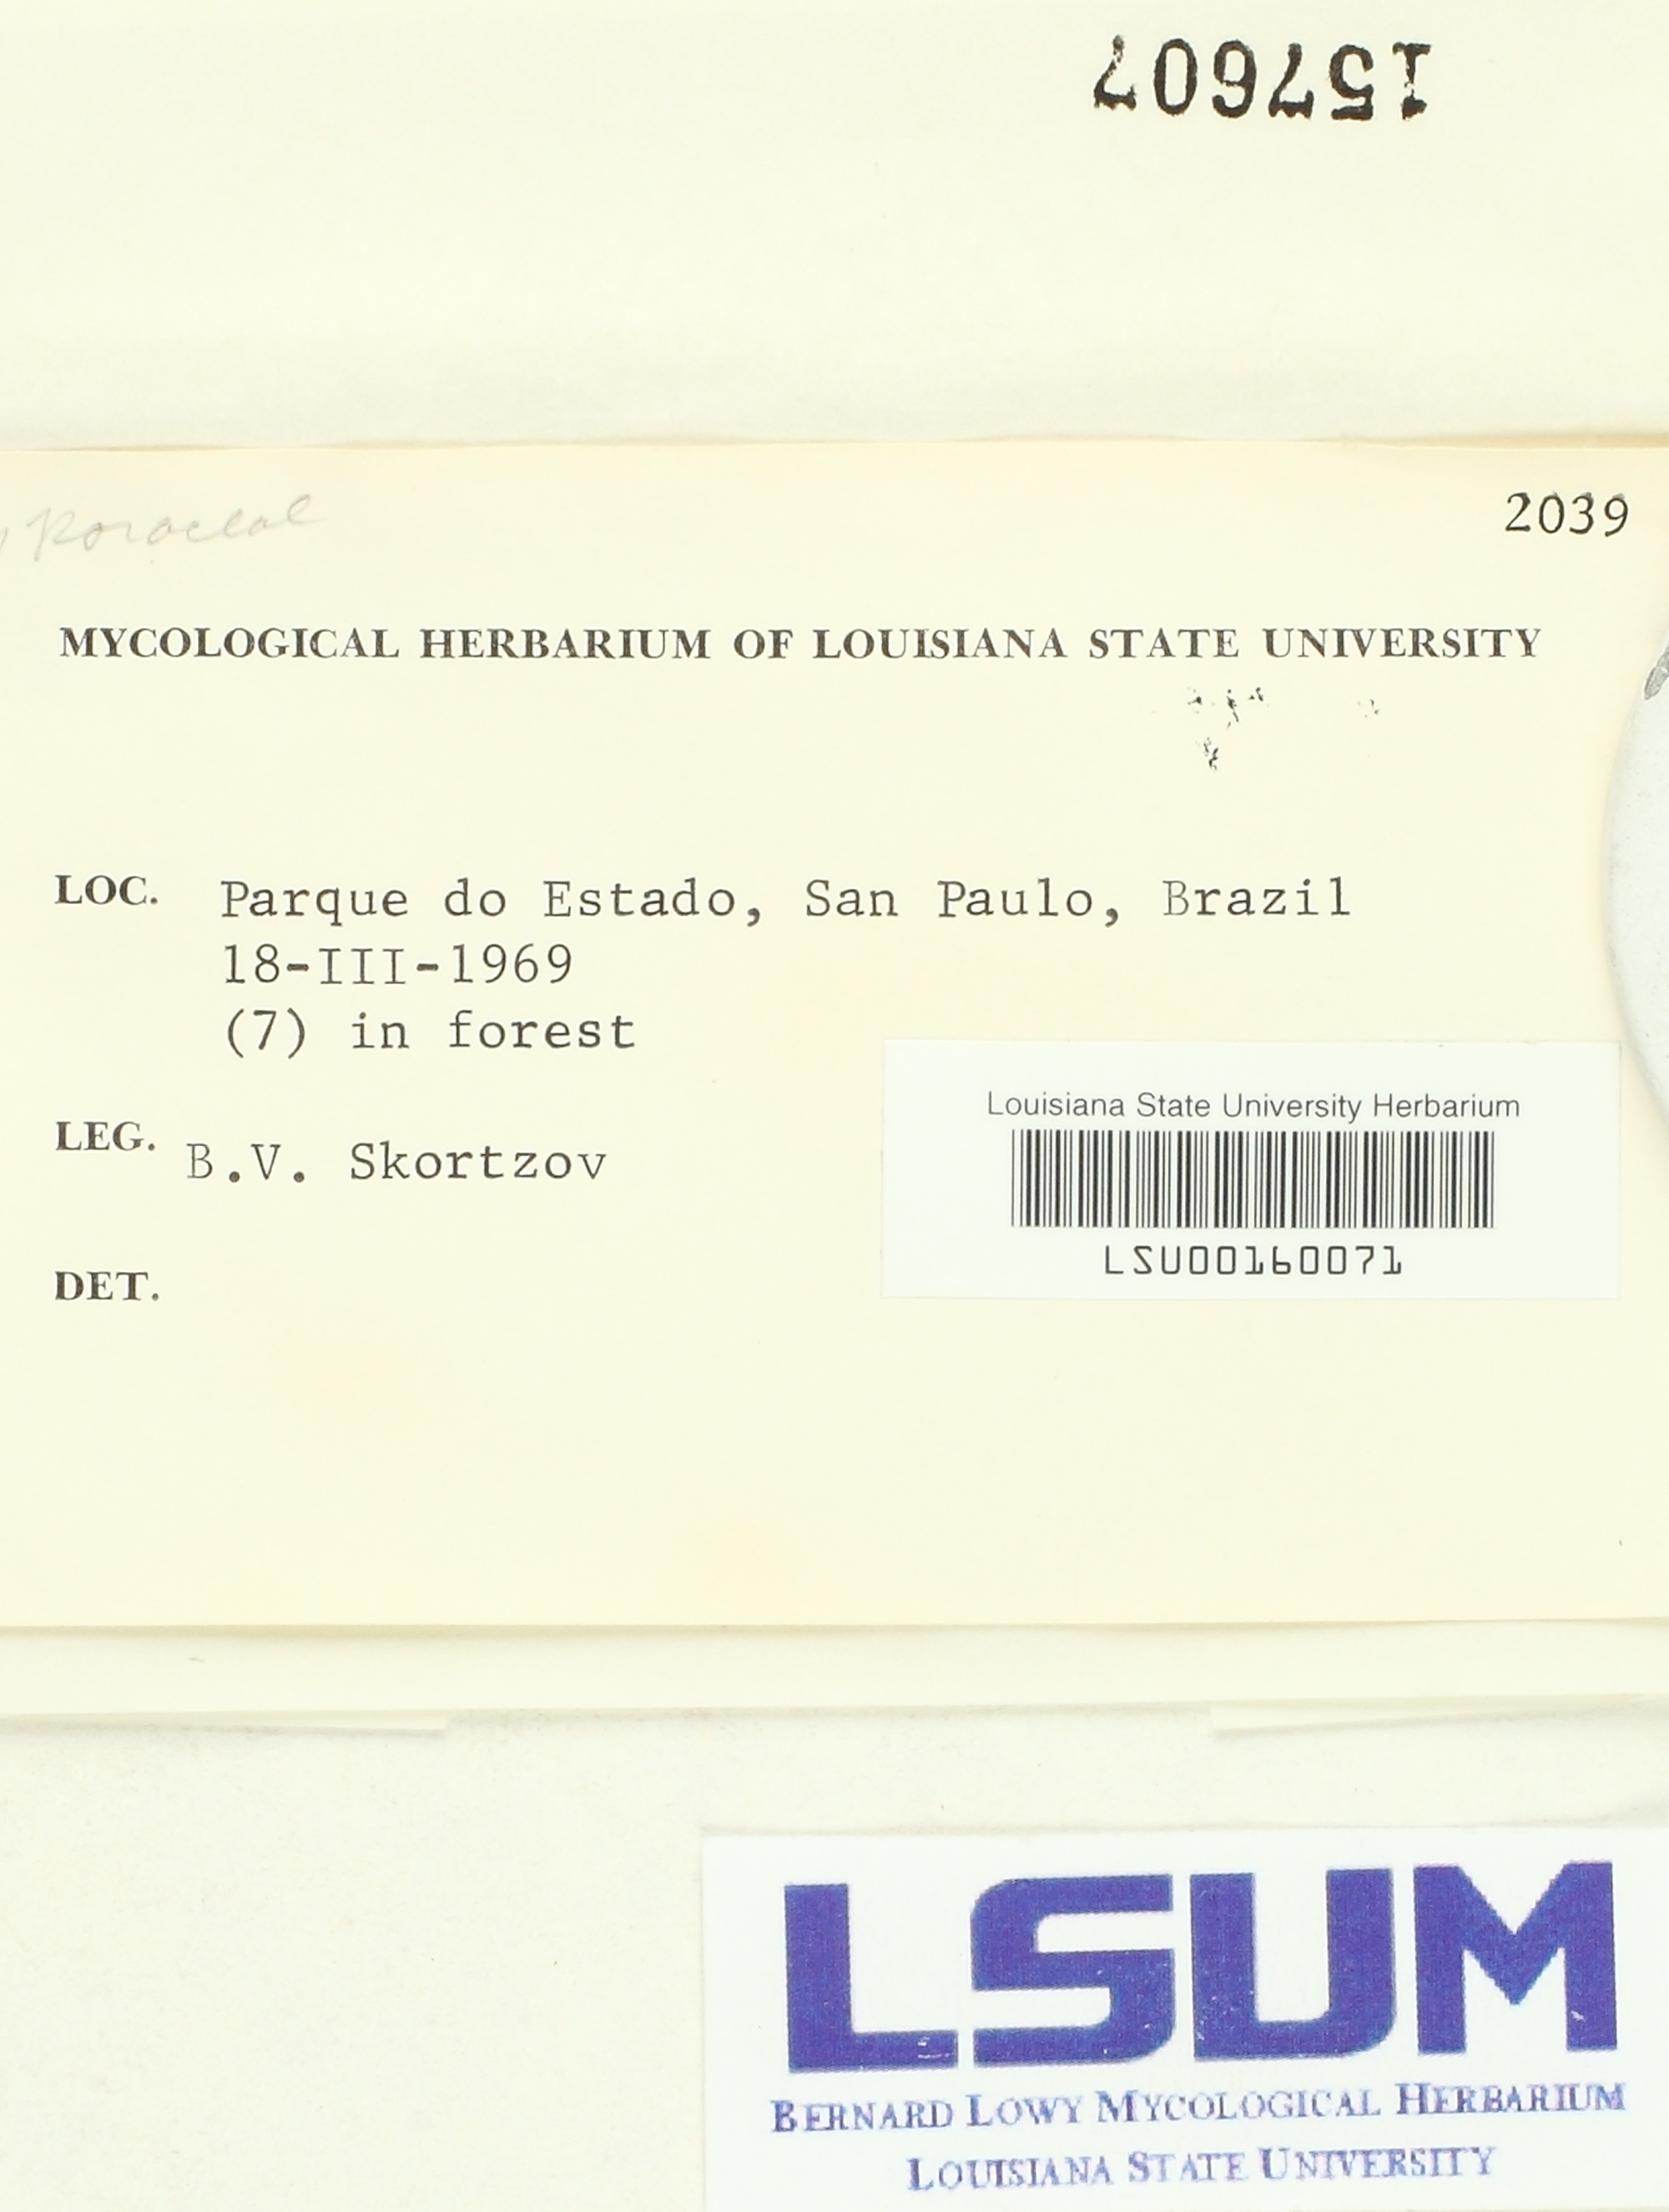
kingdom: Fungi
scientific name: Fungi
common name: Fungi
